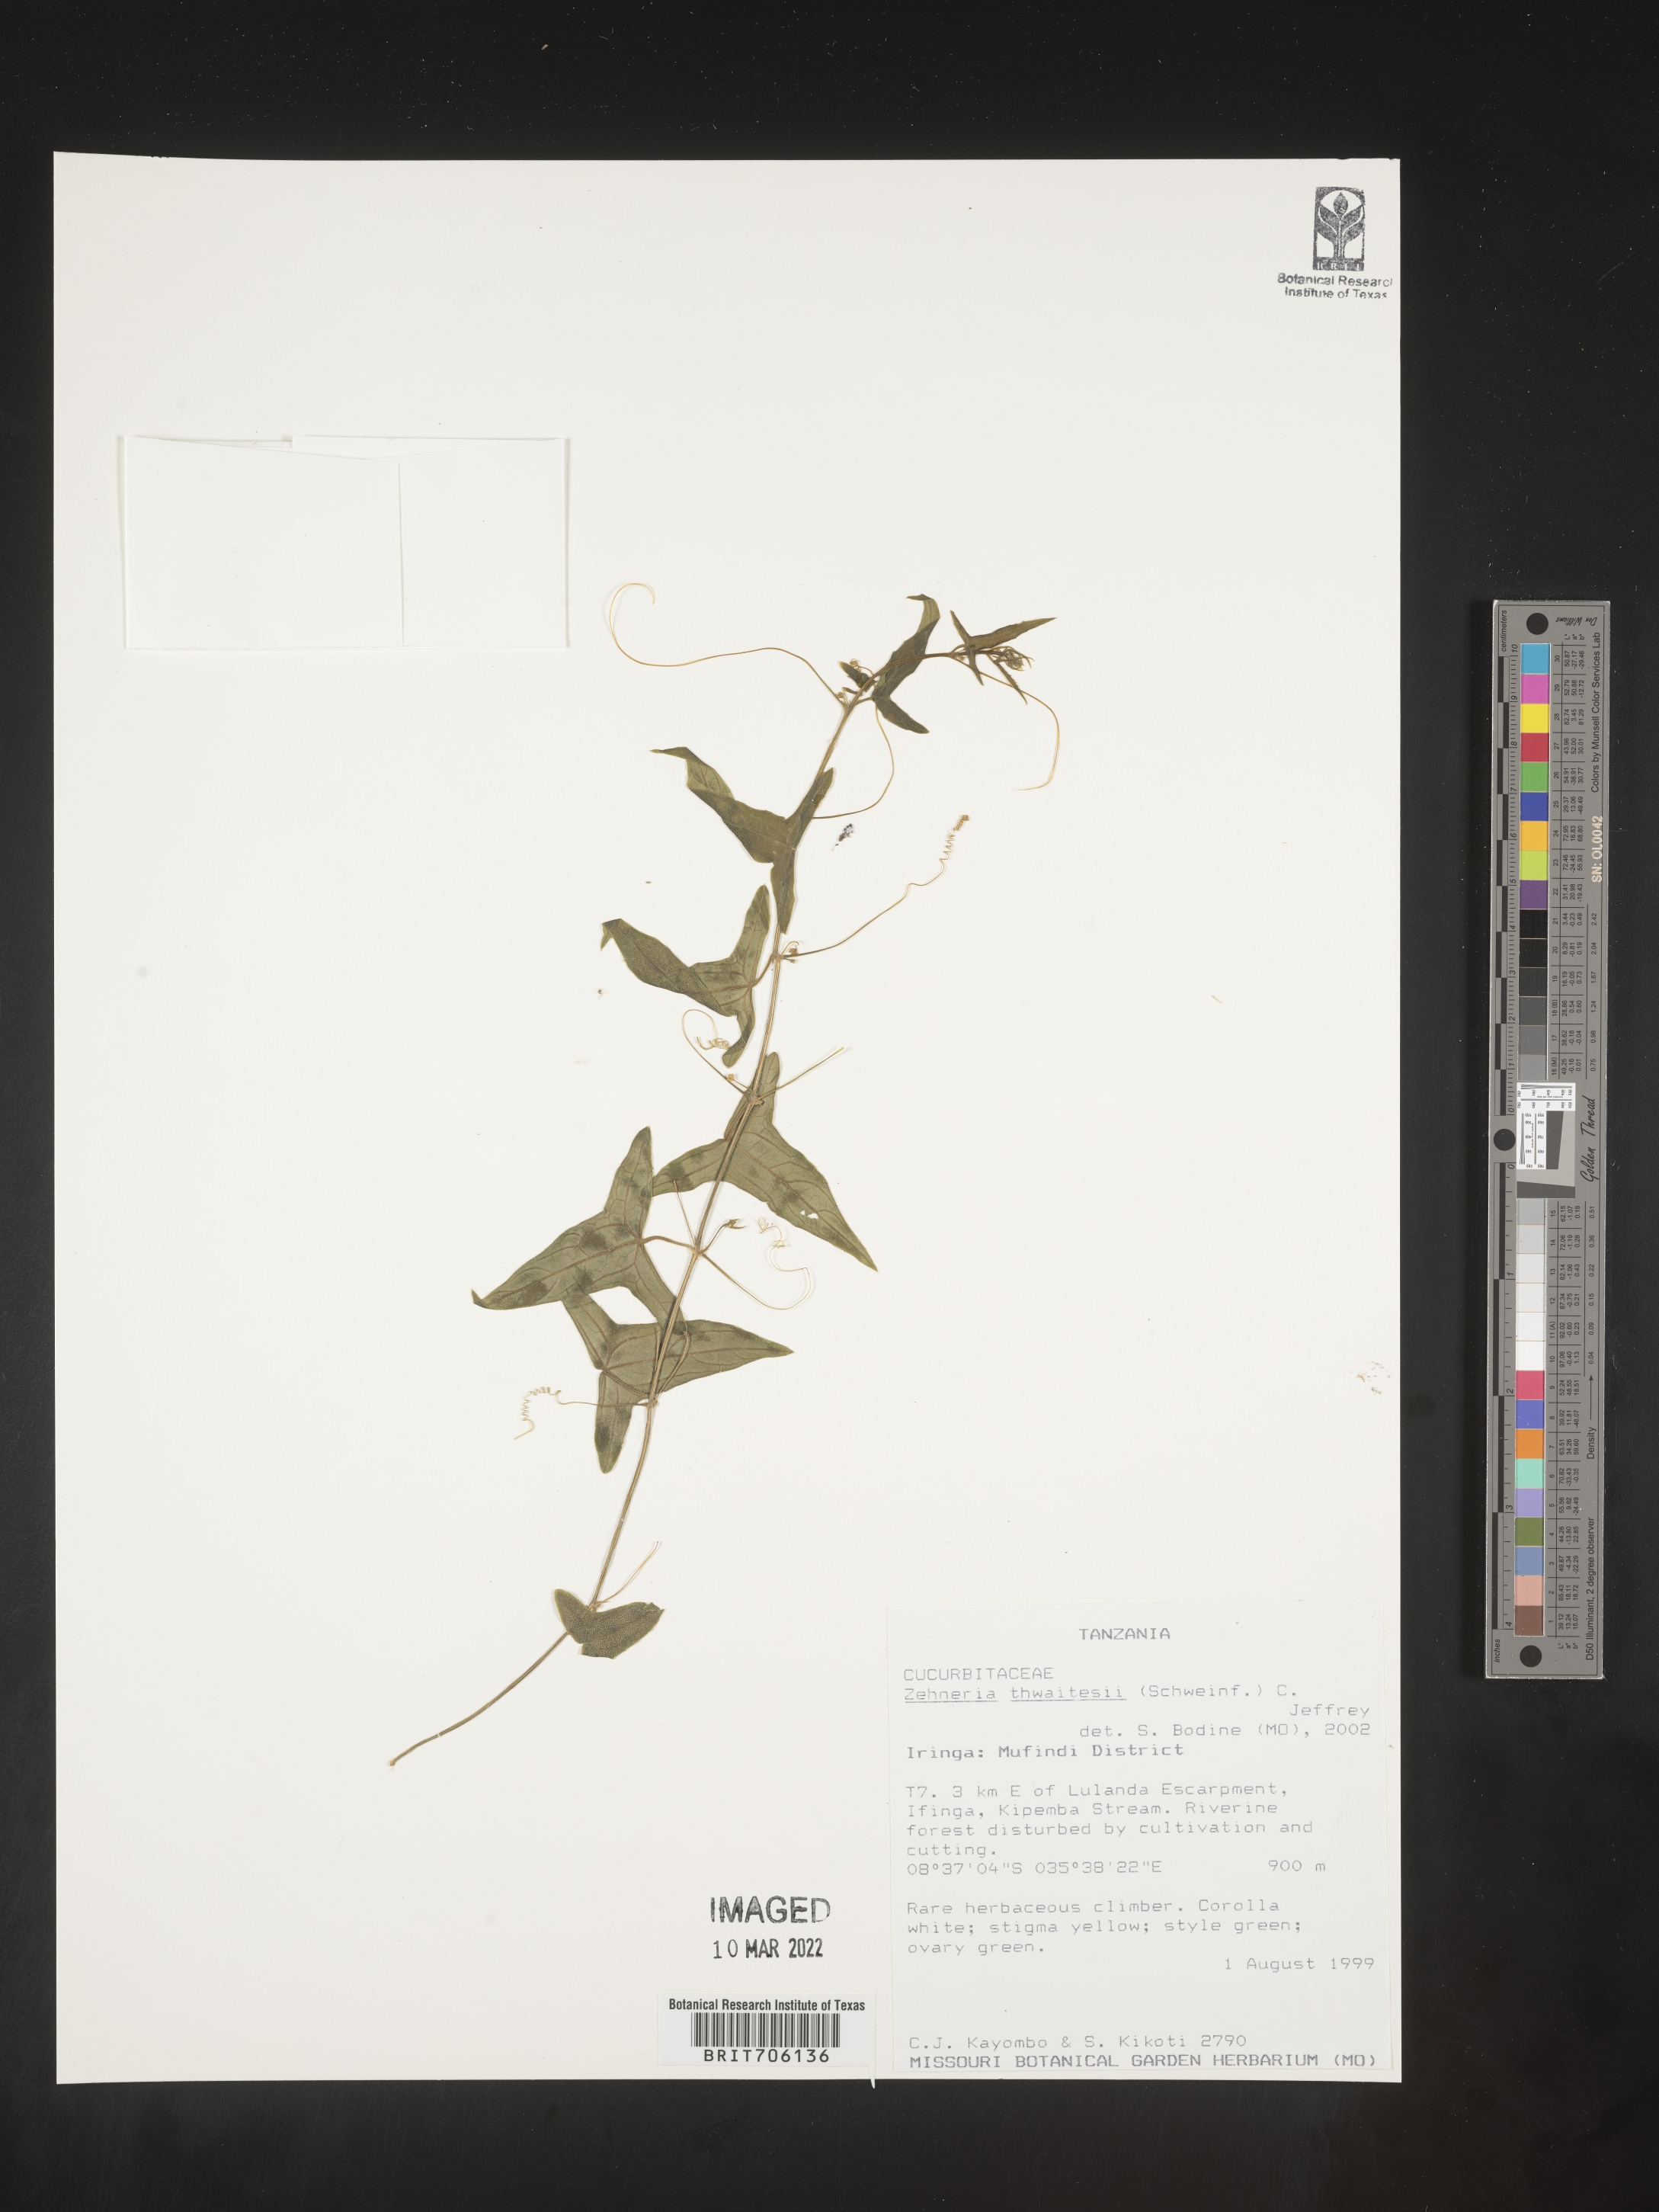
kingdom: Plantae
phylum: Tracheophyta
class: Magnoliopsida
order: Cucurbitales
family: Cucurbitaceae
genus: Zehneria
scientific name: Zehneria
